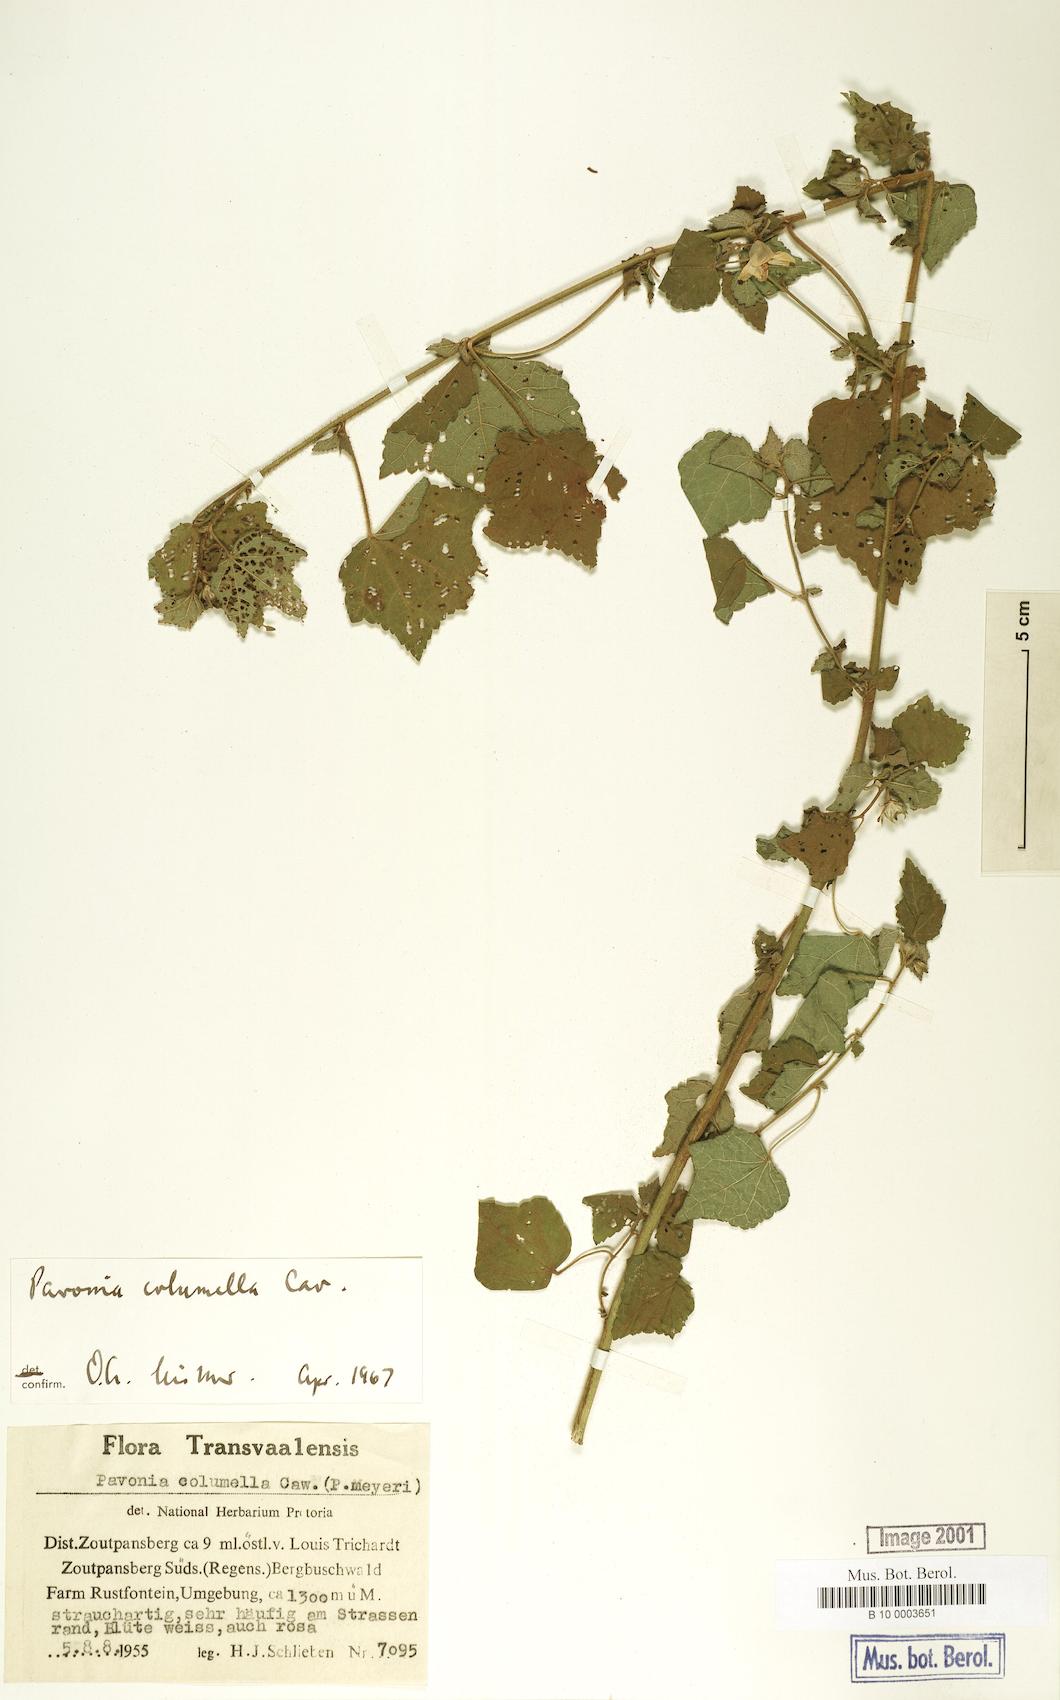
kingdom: Plantae
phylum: Tracheophyta
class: Magnoliopsida
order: Malvales
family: Malvaceae
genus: Pavonia
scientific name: Pavonia columella
